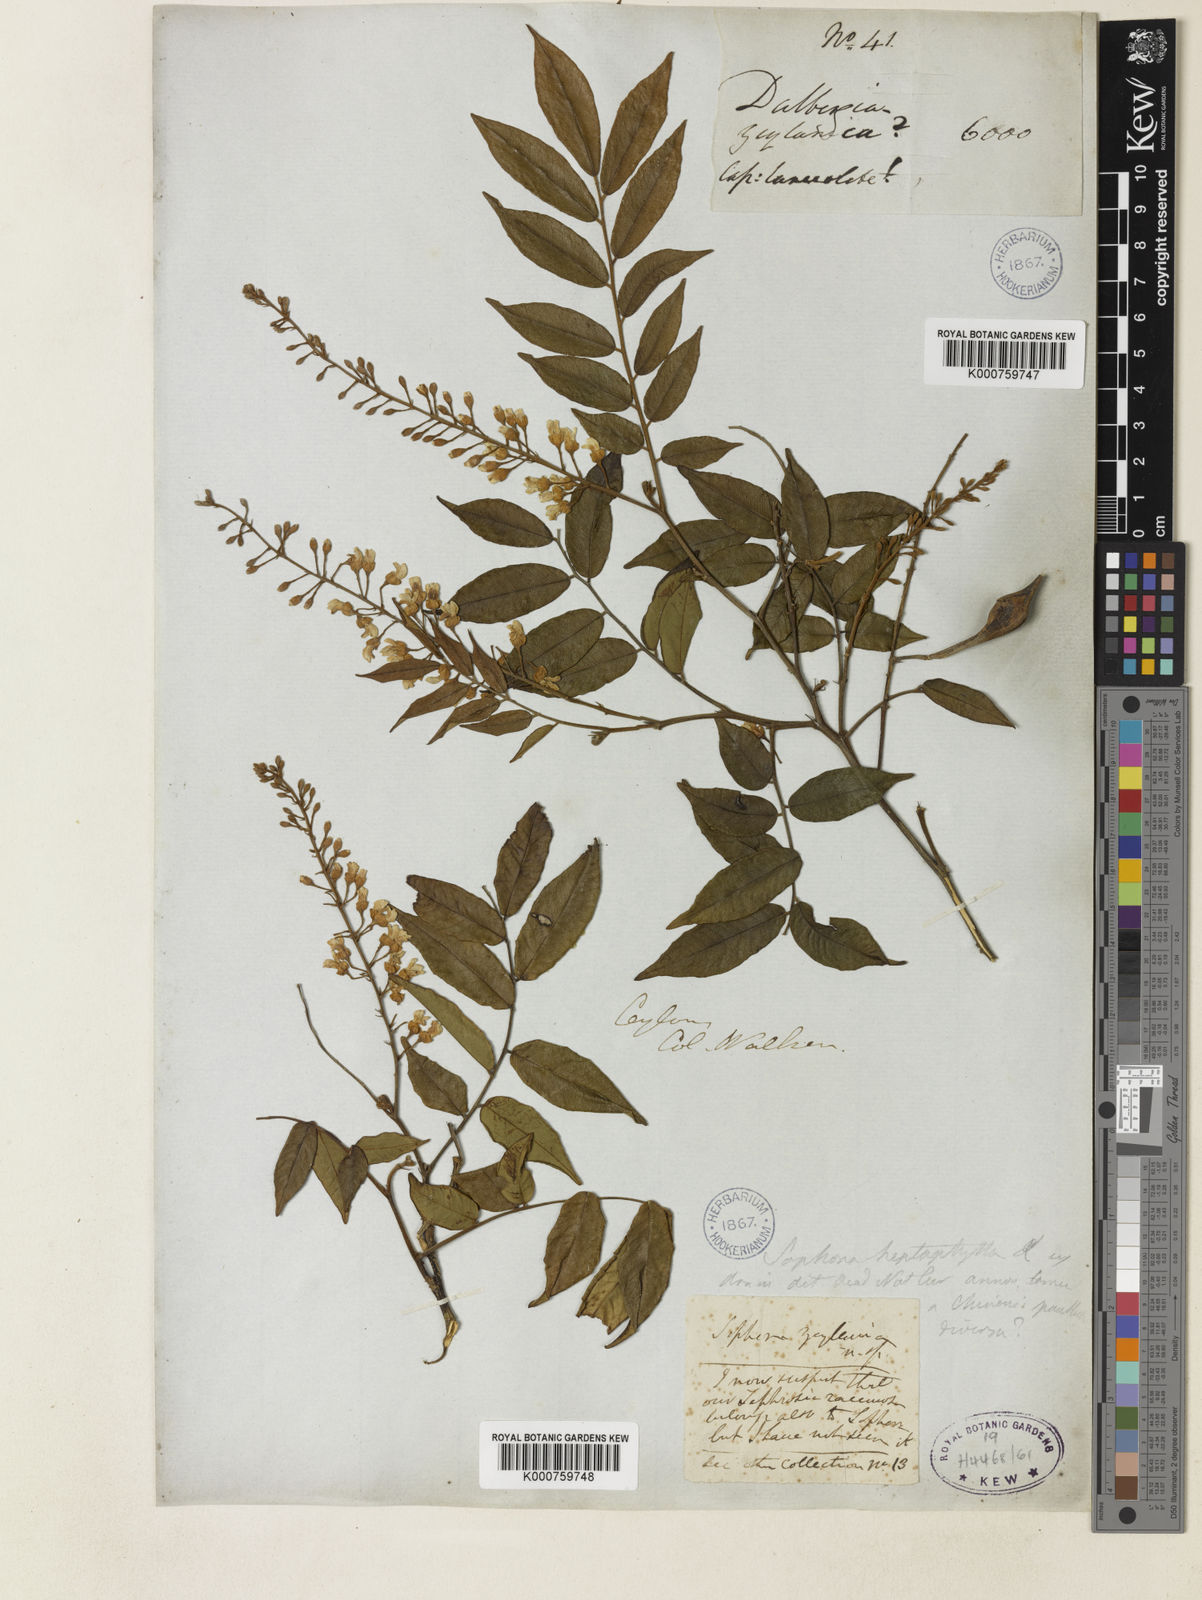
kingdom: Plantae
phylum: Tracheophyta
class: Magnoliopsida
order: Fabales
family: Fabaceae
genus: Sophora
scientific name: Sophora zeylanica
